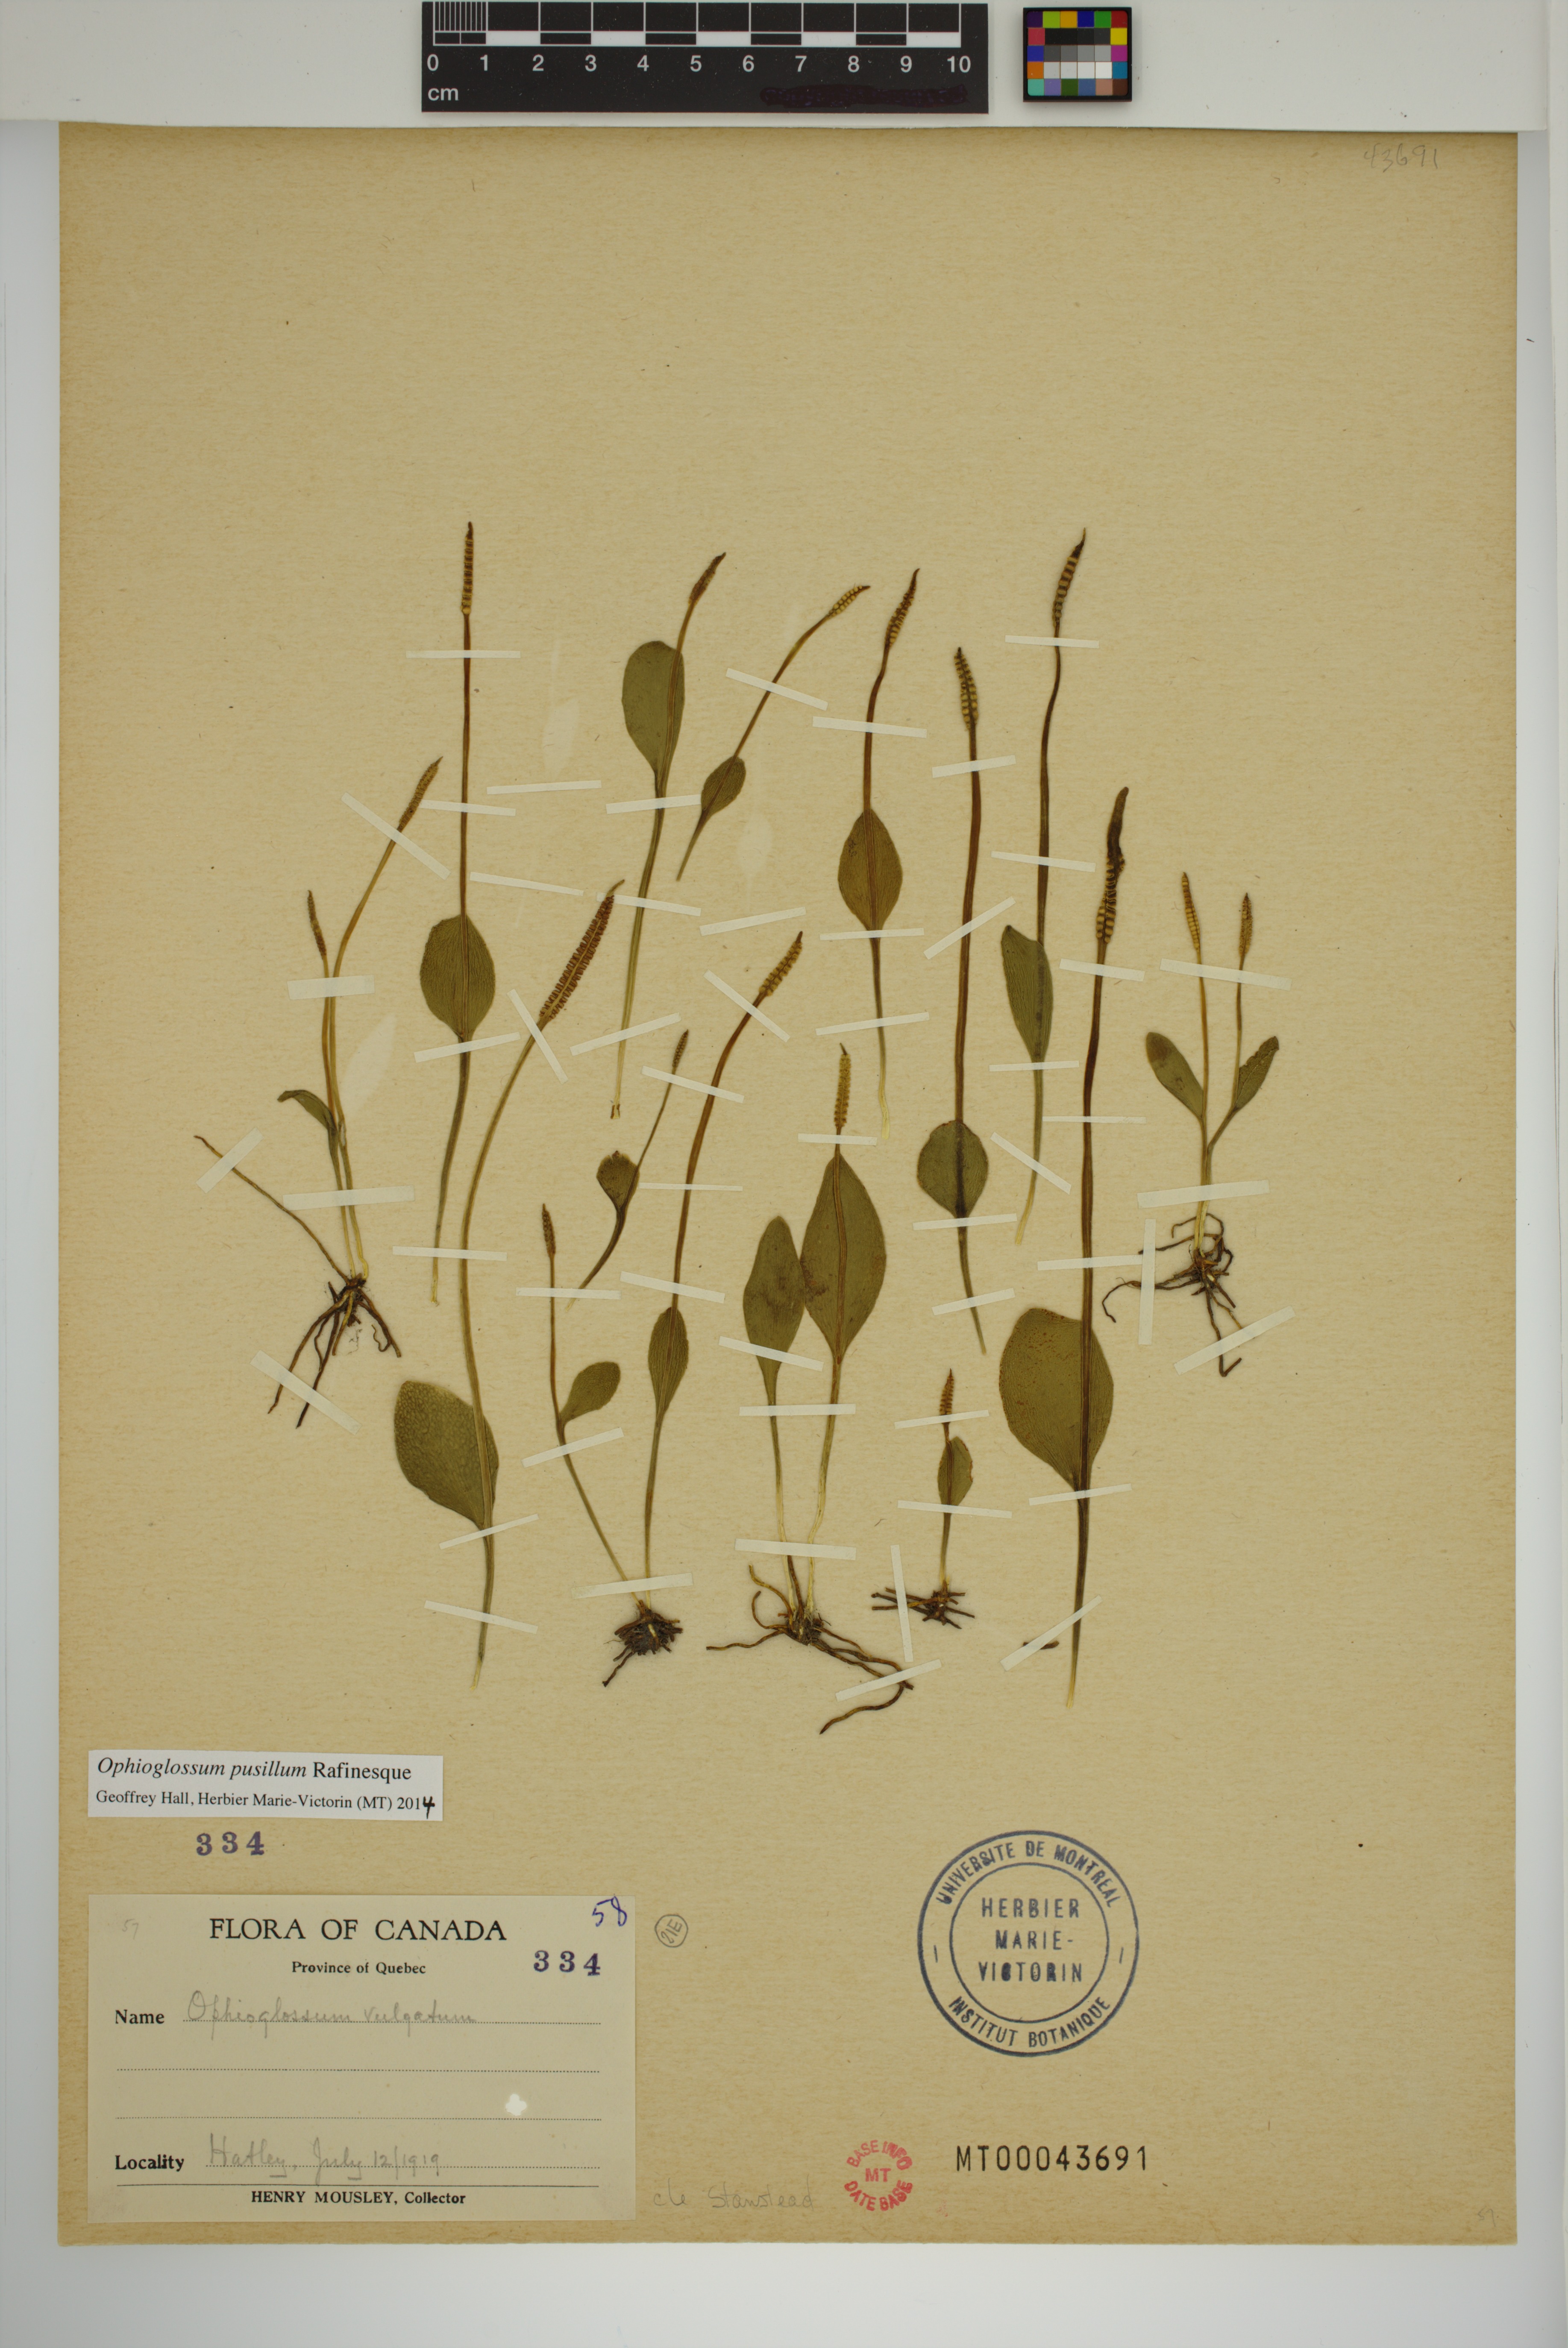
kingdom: Plantae
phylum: Tracheophyta
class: Polypodiopsida
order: Ophioglossales
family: Ophioglossaceae
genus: Ophioglossum
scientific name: Ophioglossum pusillum
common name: Northern adder's-tongue
